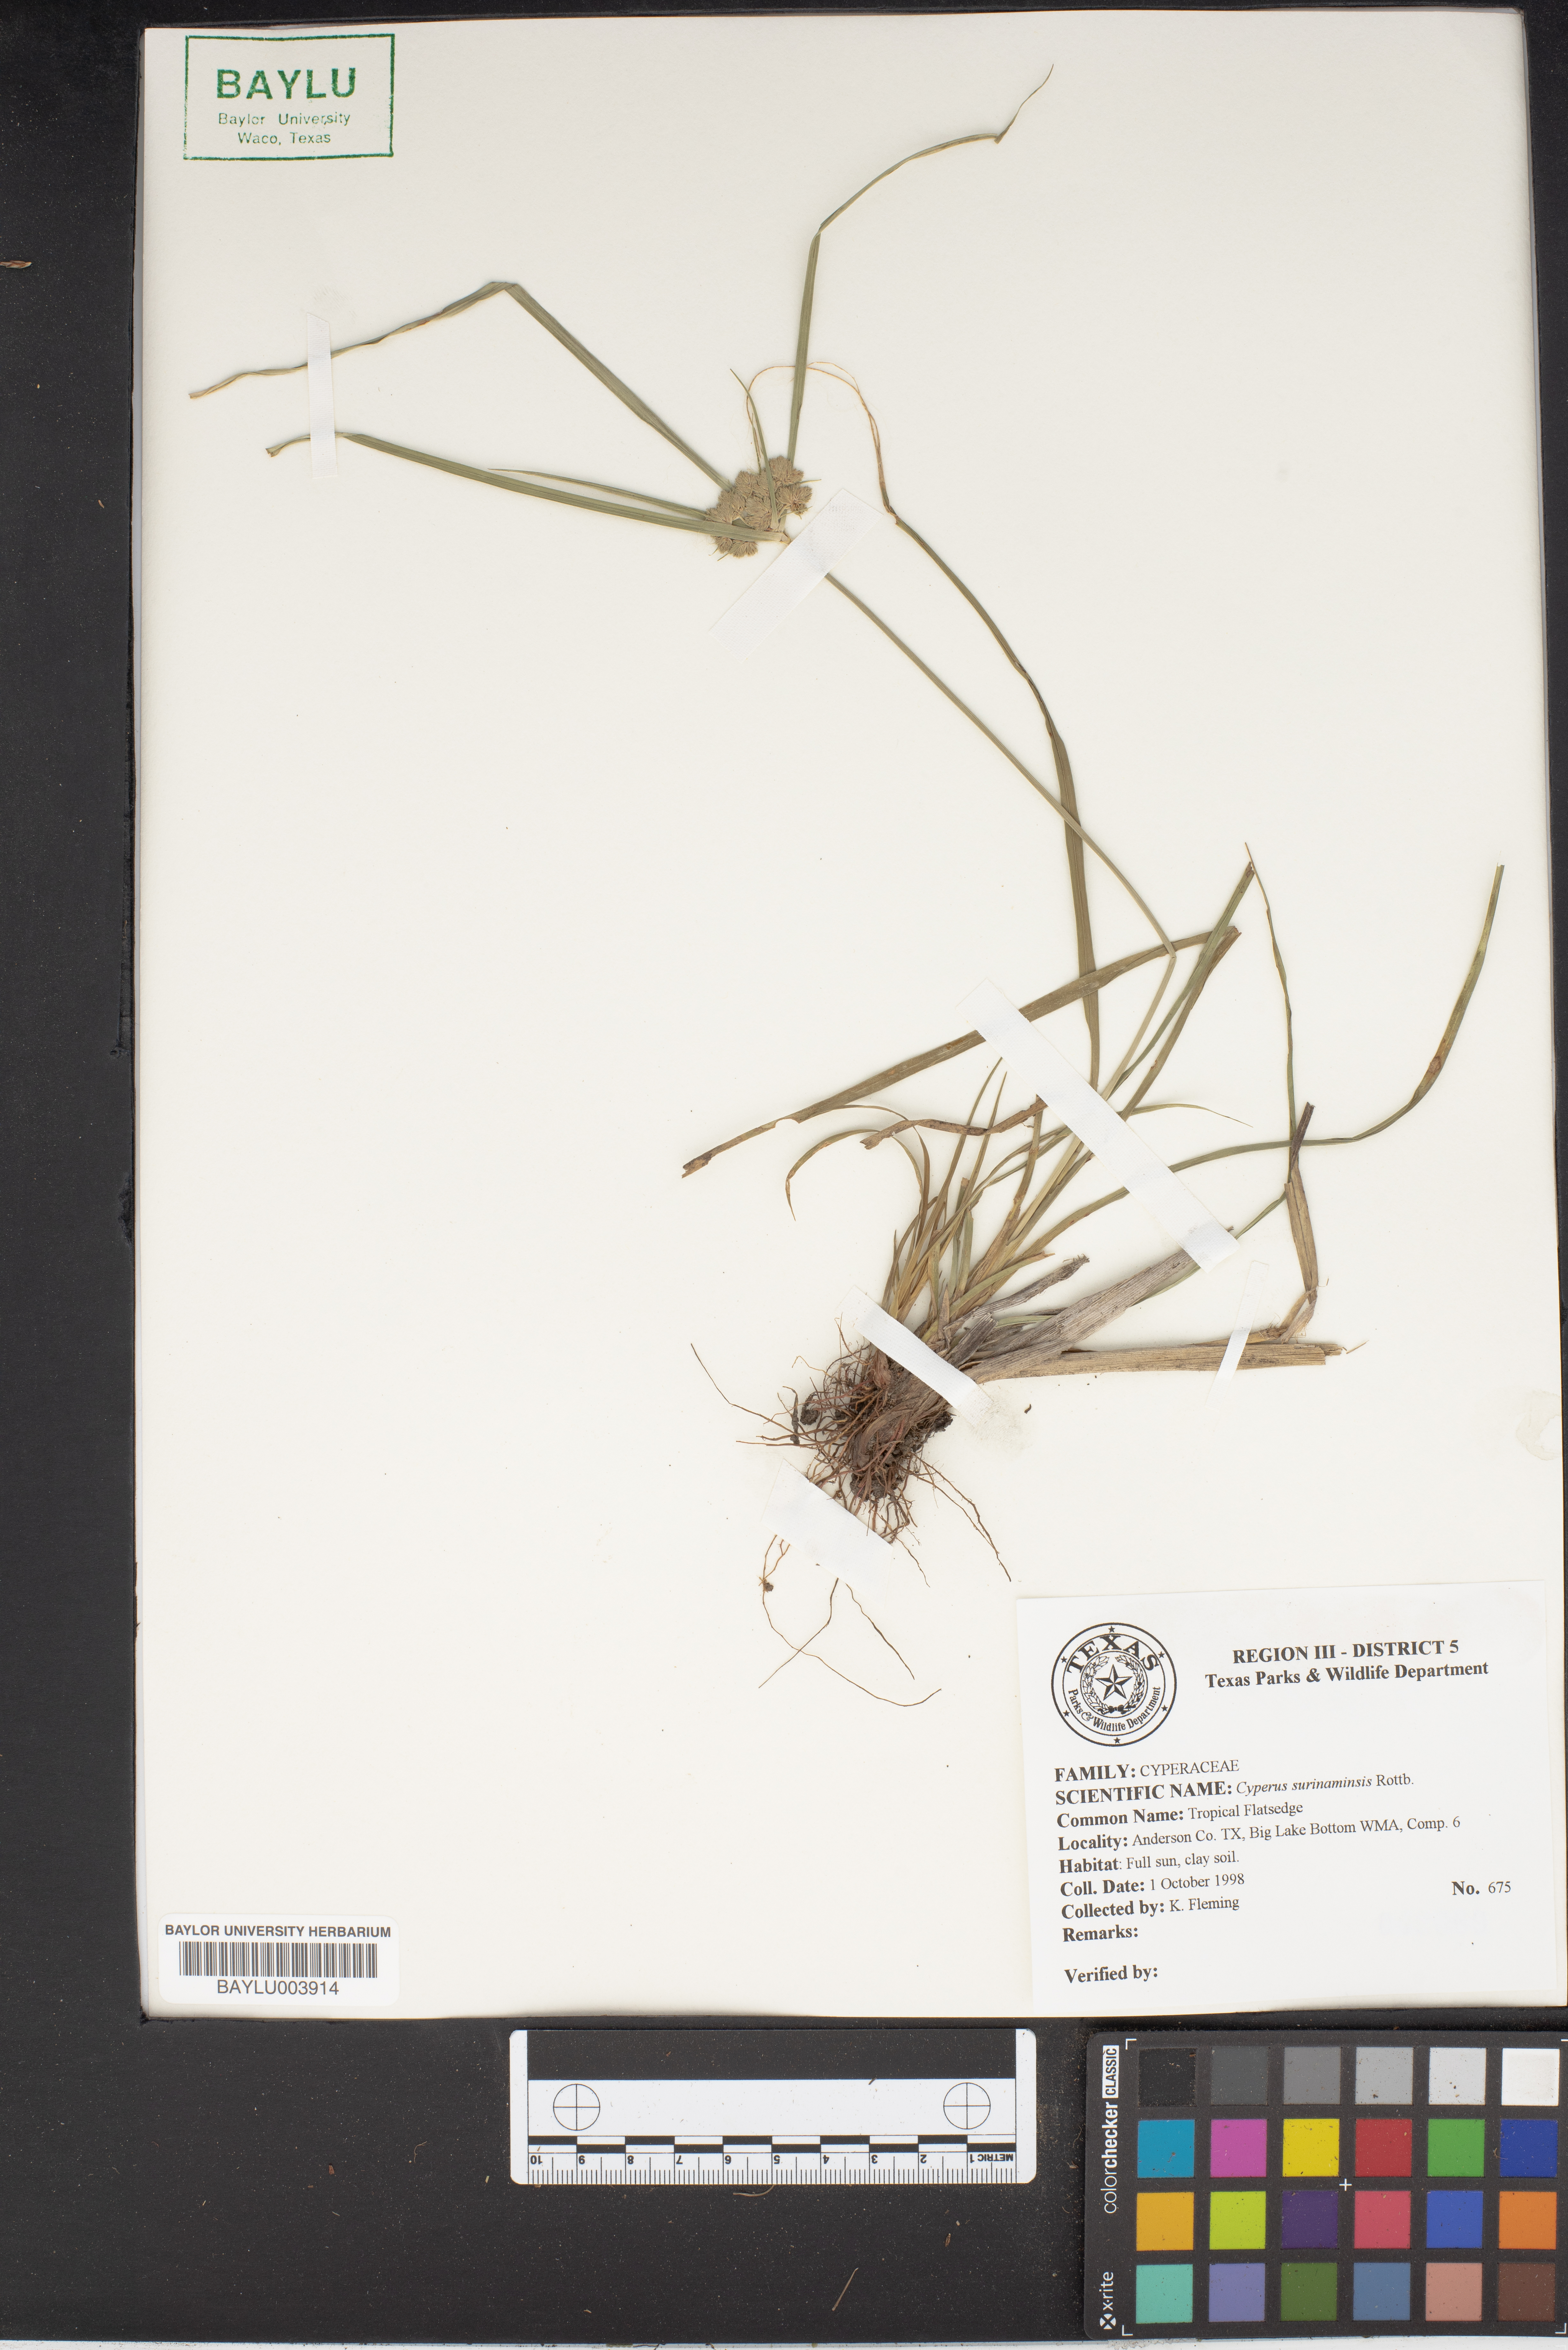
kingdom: Plantae
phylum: Tracheophyta
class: Liliopsida
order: Poales
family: Cyperaceae
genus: Cyperus
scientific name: Cyperus surinamensis
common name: Tropical flat sedge
